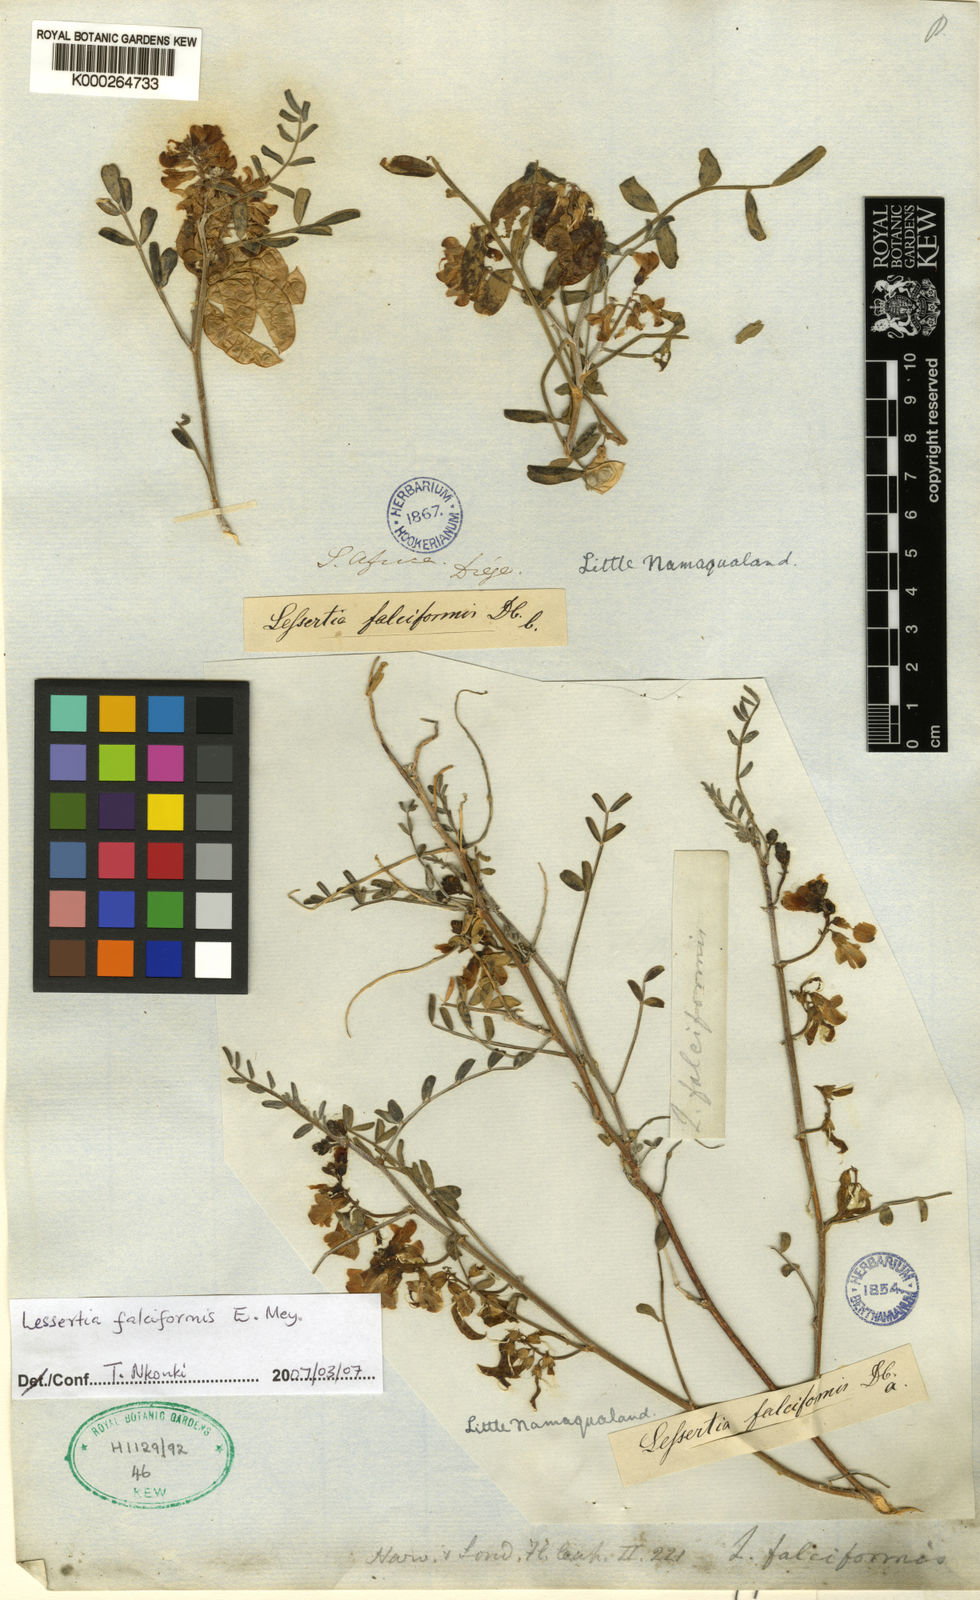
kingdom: Plantae
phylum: Tracheophyta
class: Magnoliopsida
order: Fabales
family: Fabaceae
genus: Lessertia
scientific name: Lessertia falciformis
